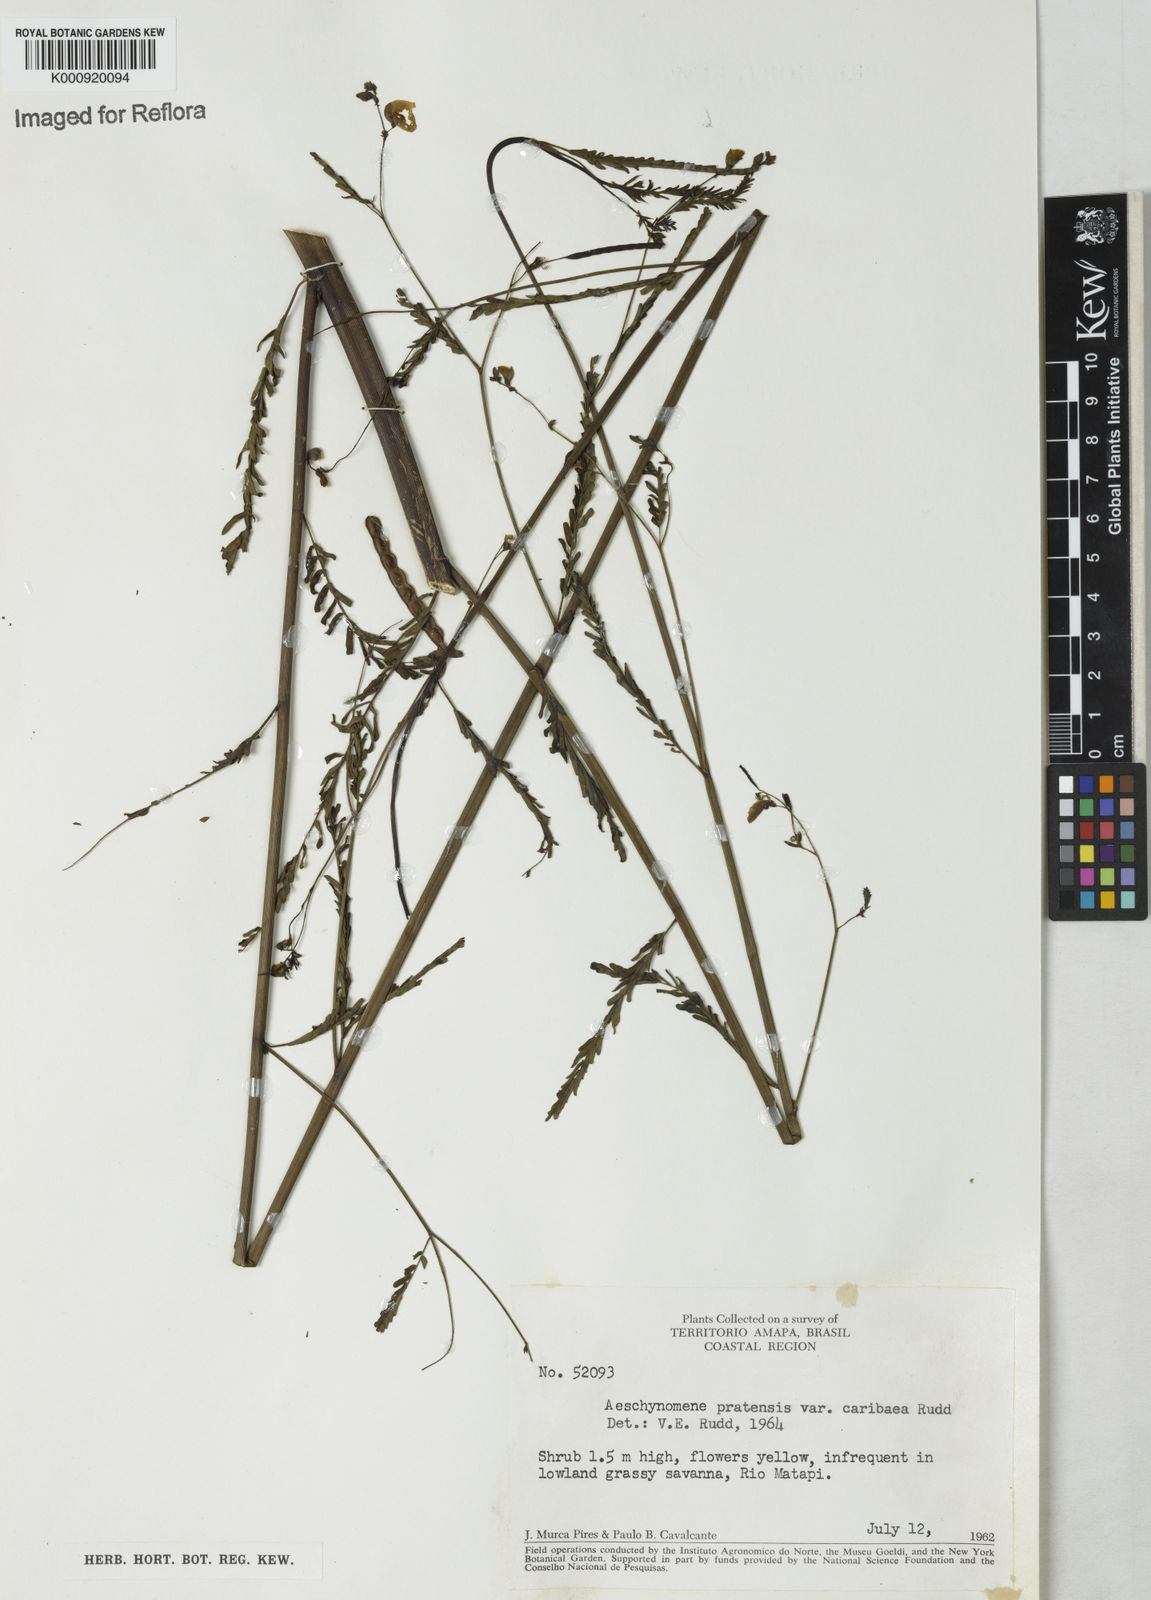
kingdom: Plantae
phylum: Tracheophyta
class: Magnoliopsida
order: Fabales
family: Fabaceae
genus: Aeschynomene
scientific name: Aeschynomene pratensis
